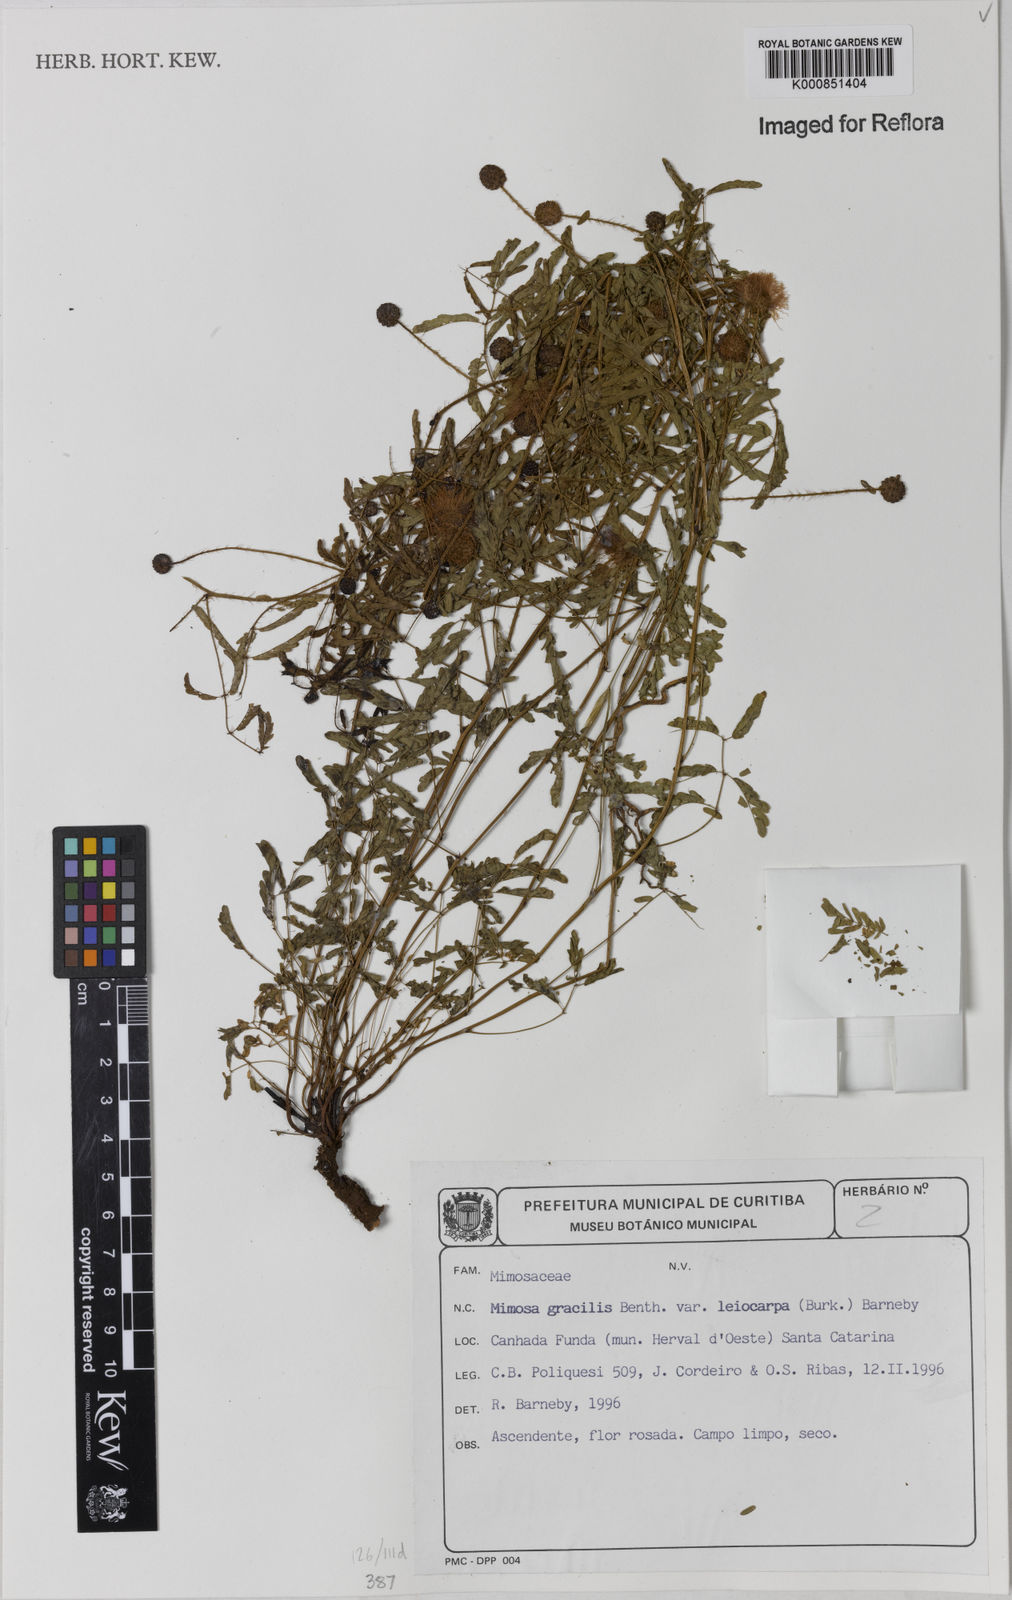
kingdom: Plantae
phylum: Tracheophyta
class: Magnoliopsida
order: Fabales
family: Fabaceae
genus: Mimosa
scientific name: Mimosa gracilis
